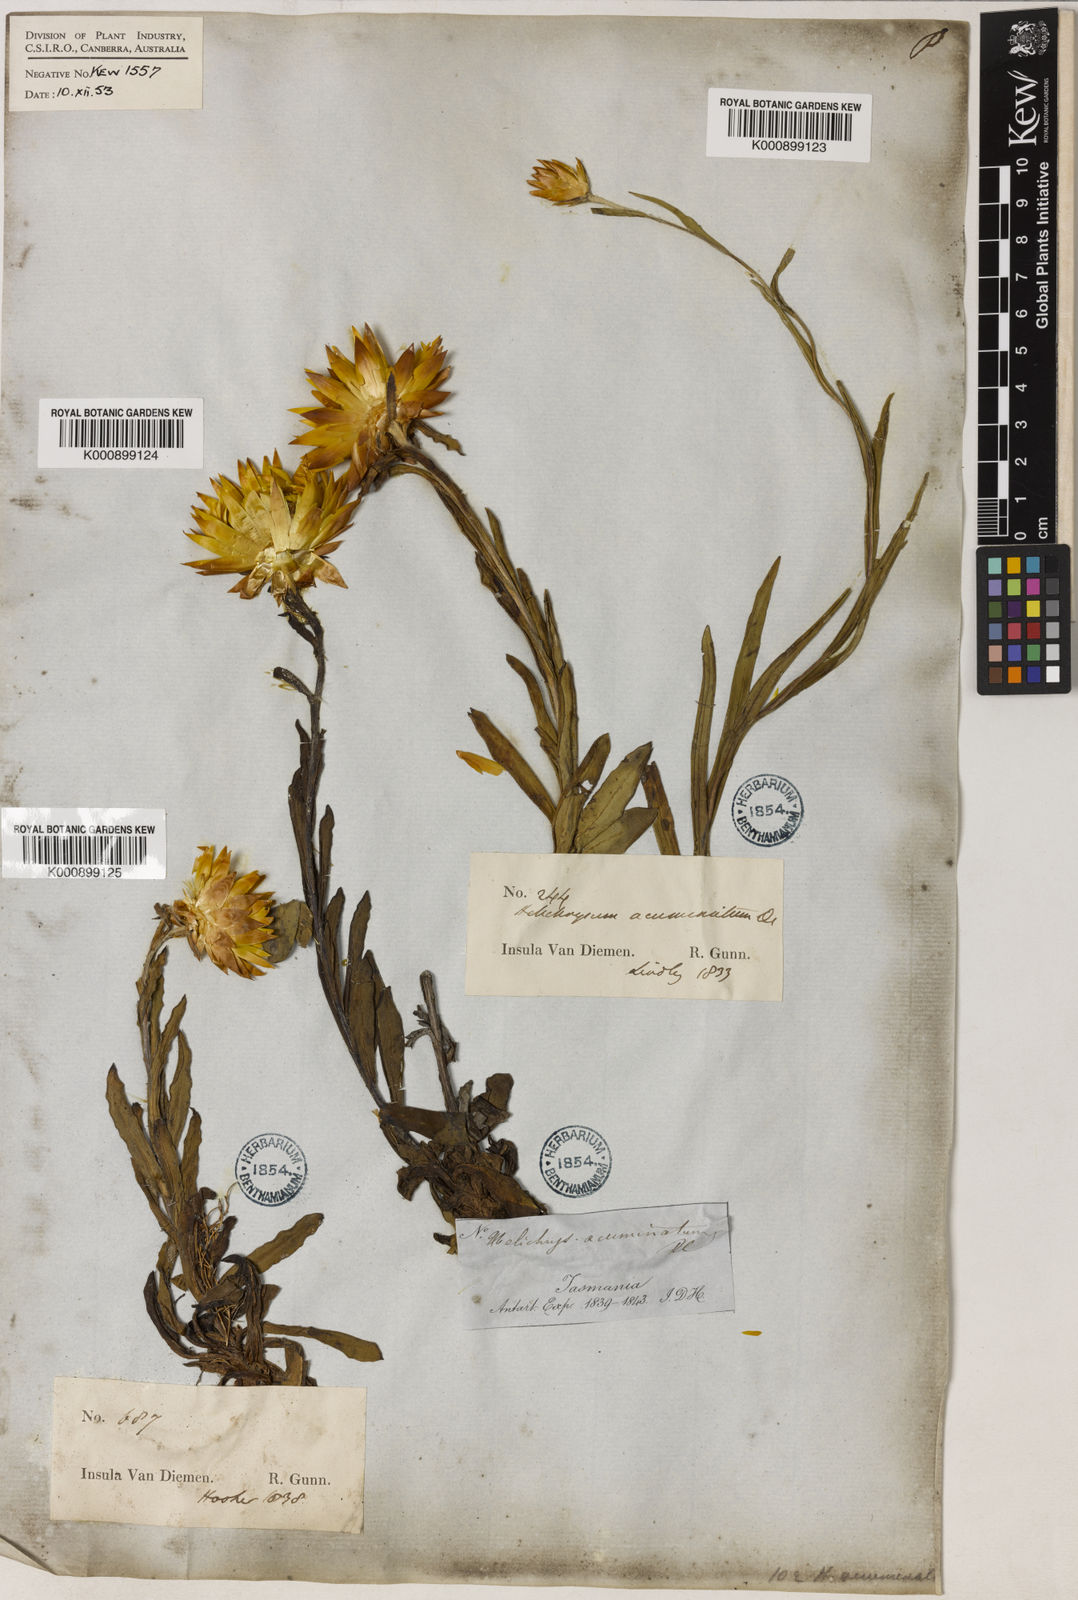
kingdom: Plantae
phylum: Tracheophyta
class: Magnoliopsida
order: Asterales
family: Asteraceae
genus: Xerochrysum
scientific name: Xerochrysum bracteatum
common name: Bracted strawflower
